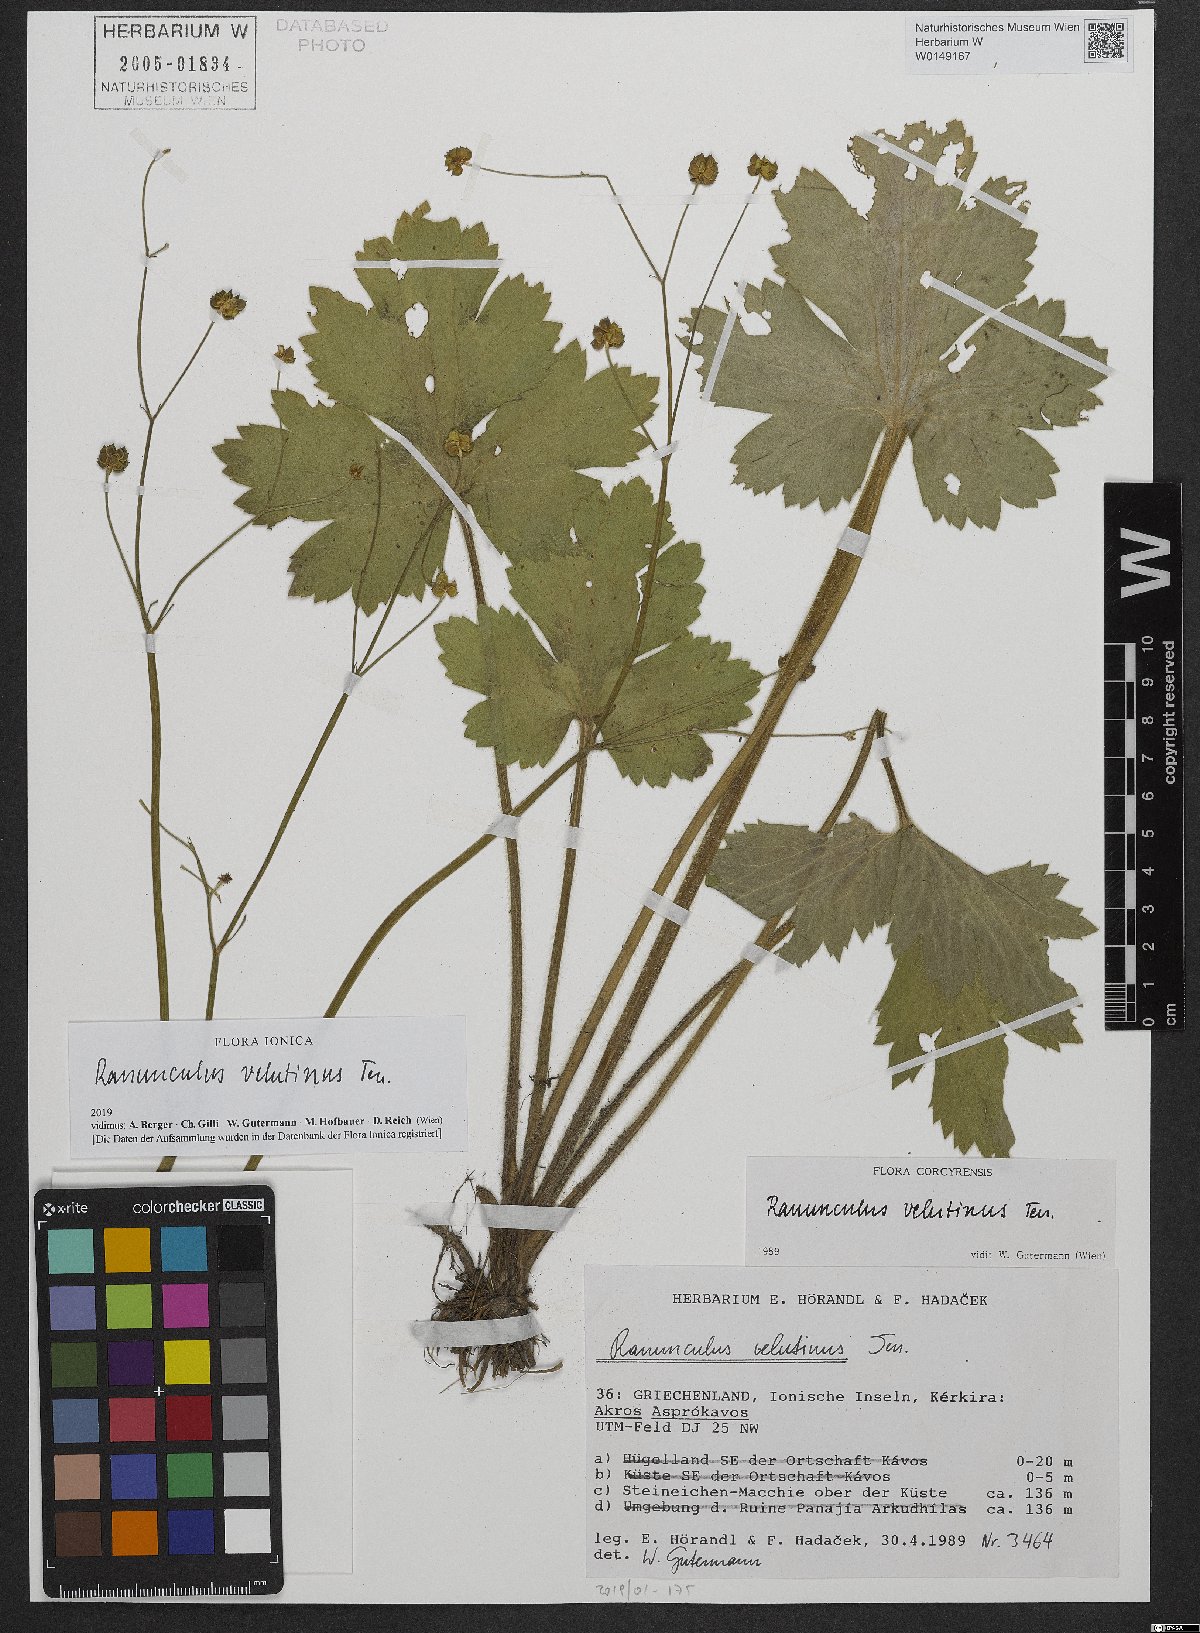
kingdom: Plantae
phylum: Tracheophyta
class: Magnoliopsida
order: Ranunculales
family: Ranunculaceae
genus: Ranunculus
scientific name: Ranunculus velutinus
